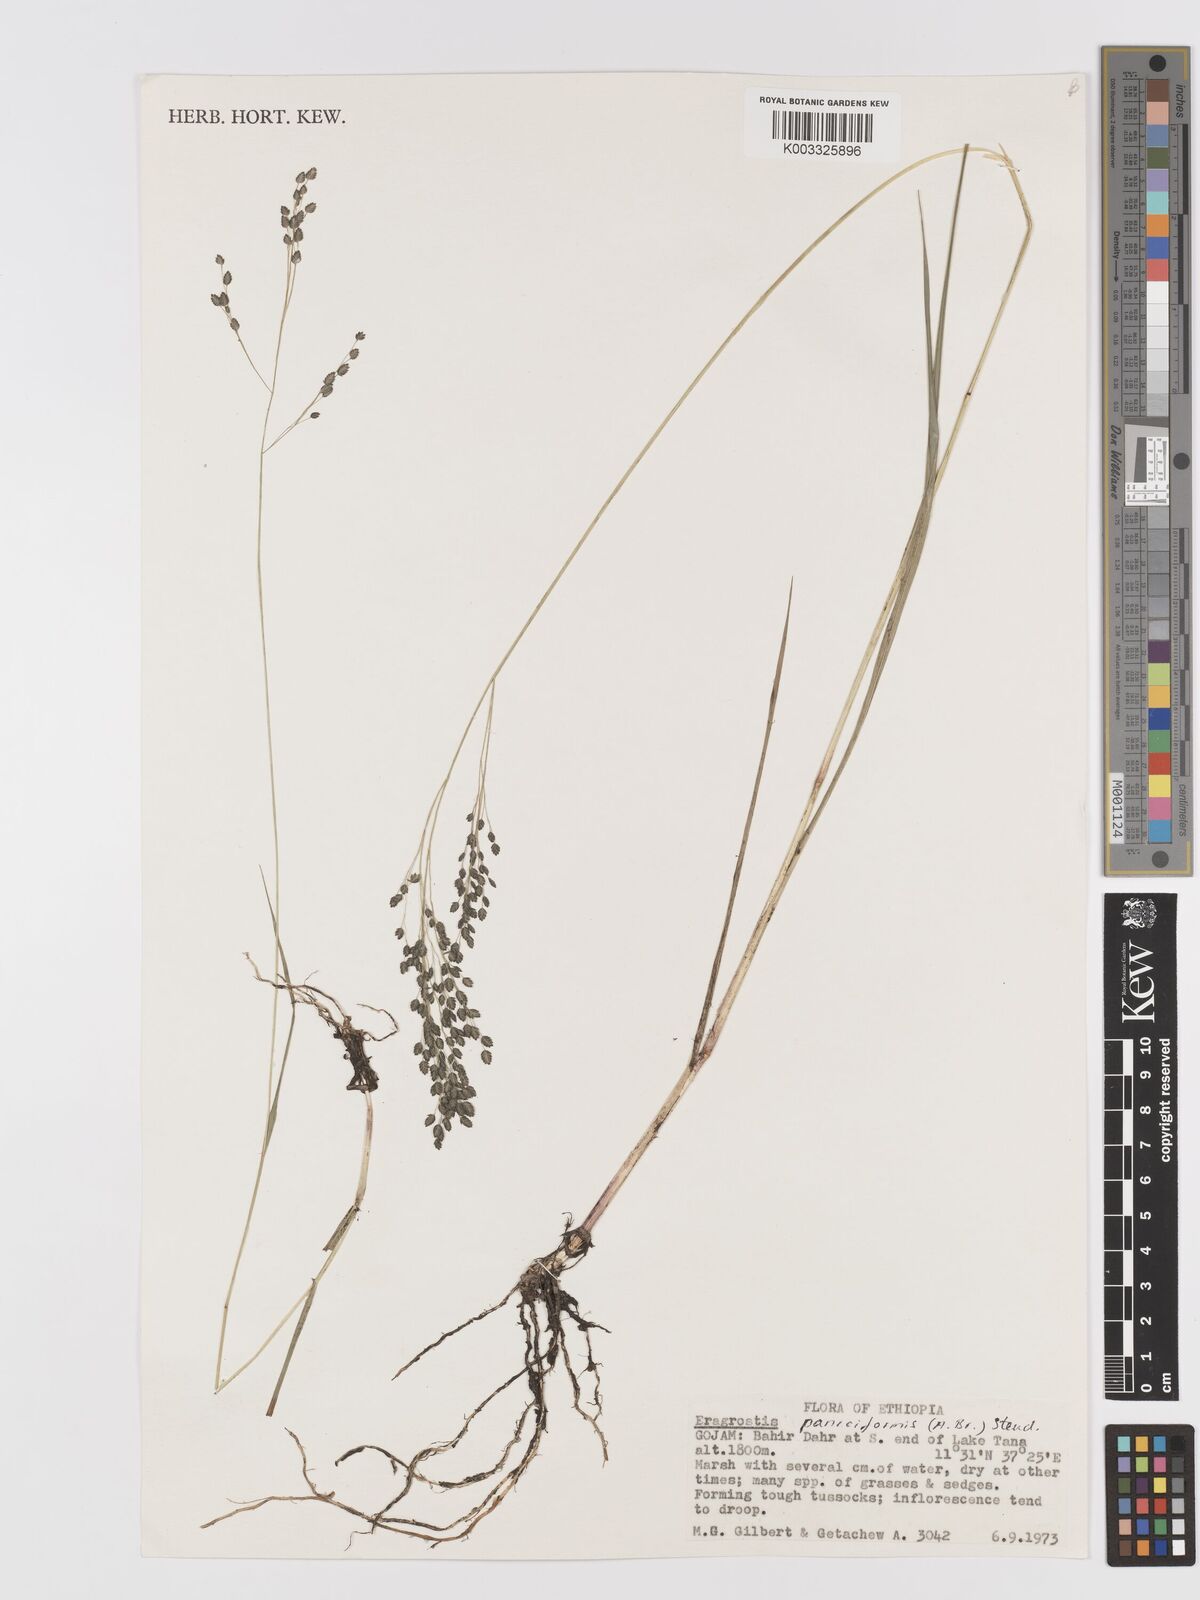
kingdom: Plantae
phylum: Tracheophyta
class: Liliopsida
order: Poales
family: Poaceae
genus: Eragrostis
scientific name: Eragrostis paniciformis
